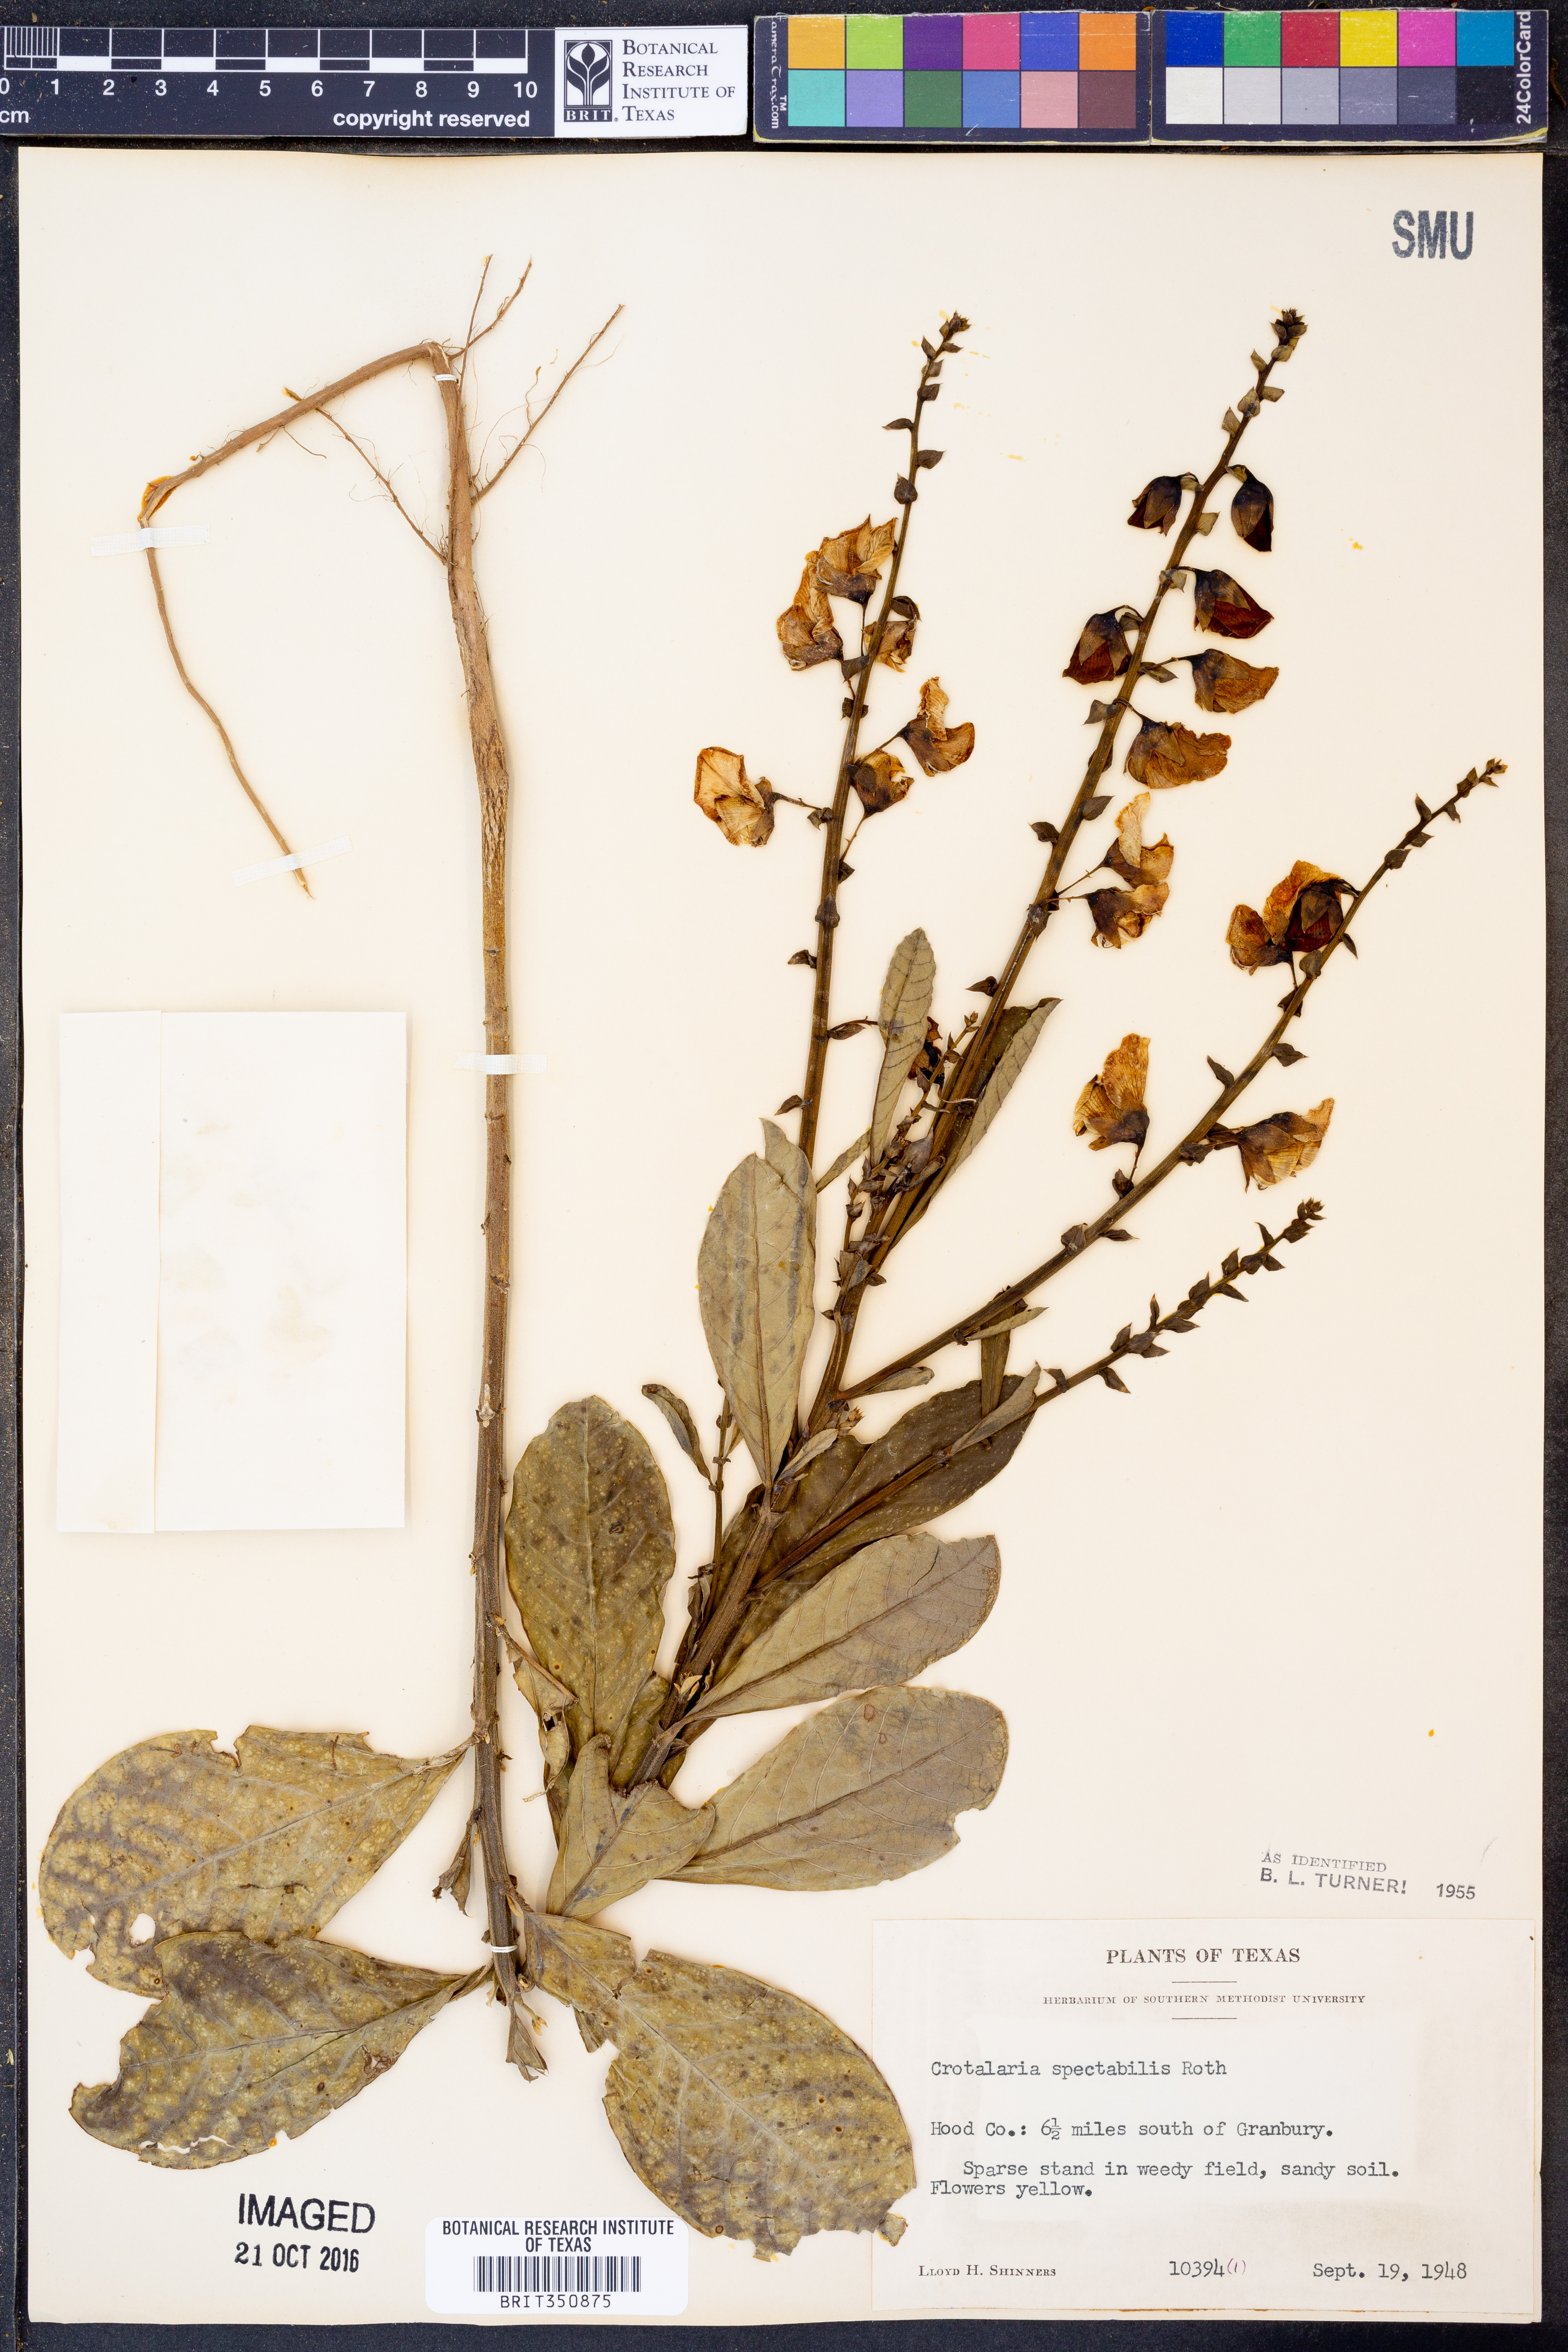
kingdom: Plantae
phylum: Tracheophyta
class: Magnoliopsida
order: Fabales
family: Fabaceae
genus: Crotalaria
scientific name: Crotalaria spectabilis
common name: Showy rattlebox
